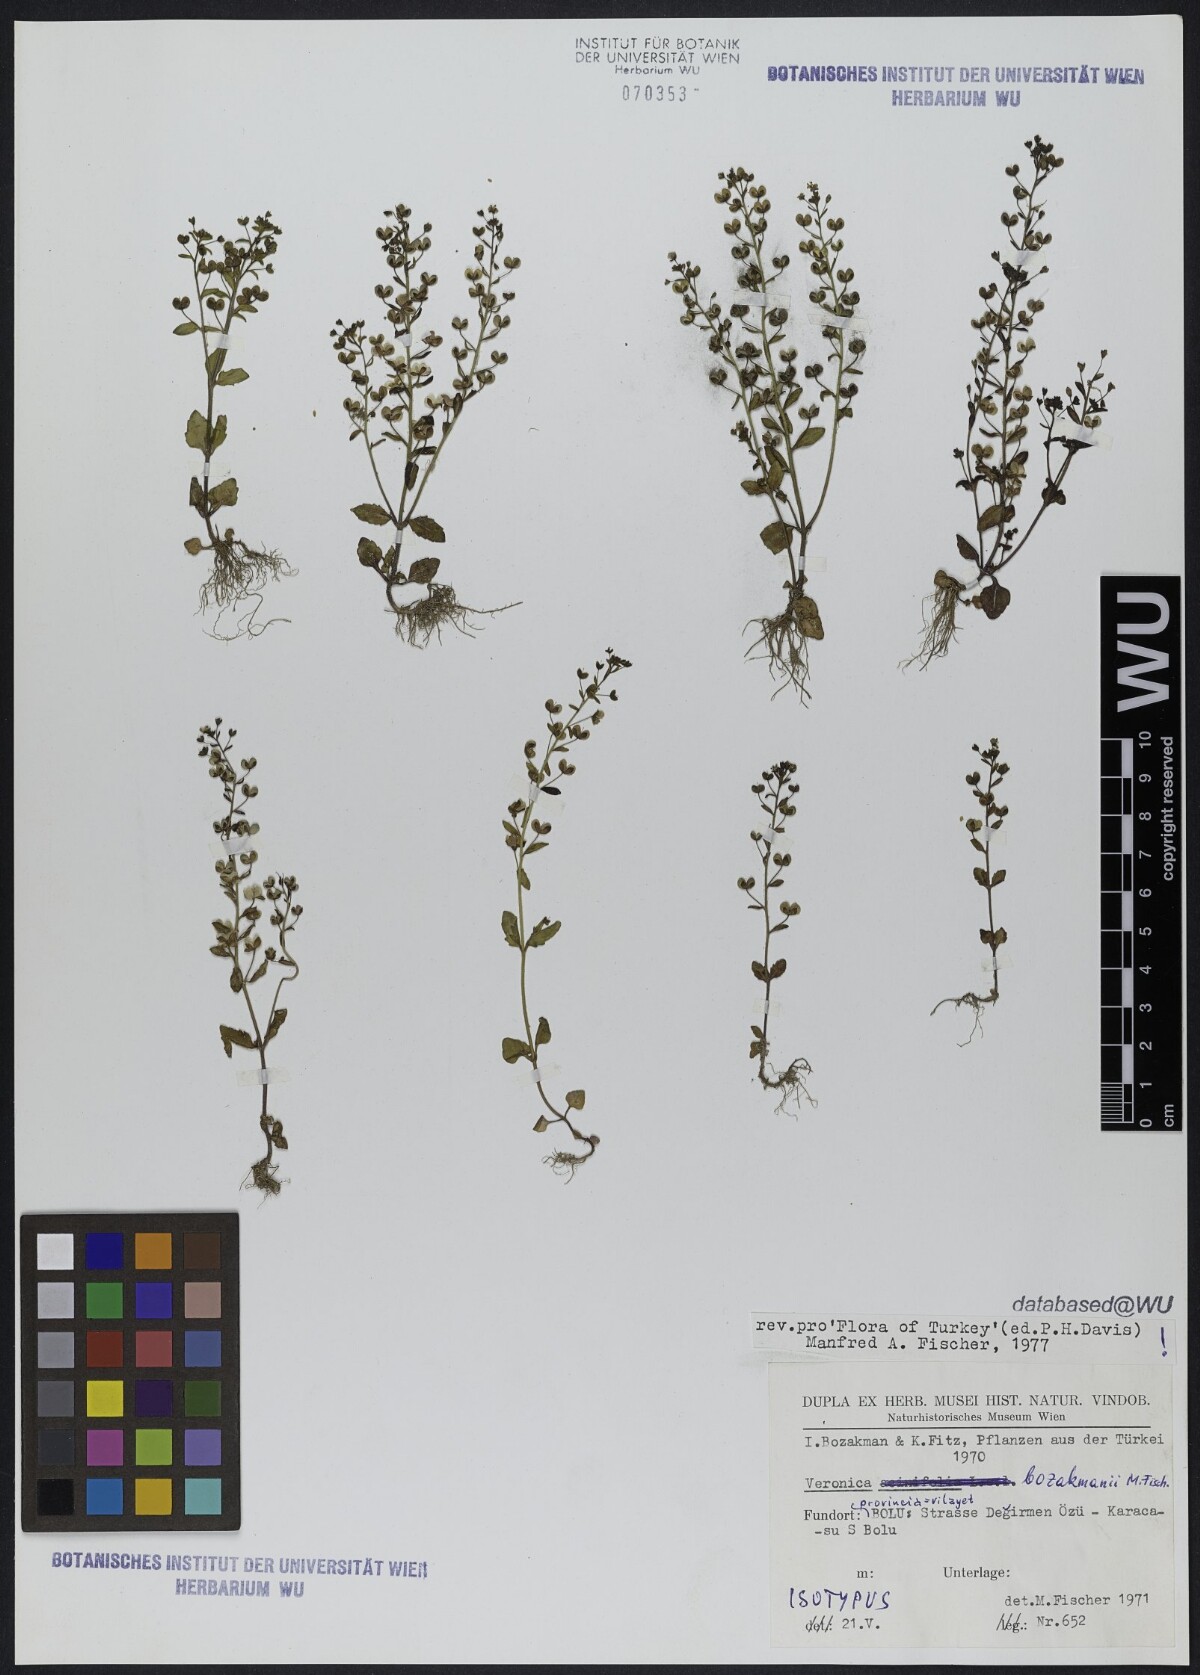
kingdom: Plantae
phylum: Tracheophyta
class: Magnoliopsida
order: Lamiales
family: Plantaginaceae
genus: Veronica
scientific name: Veronica bozakmanii
